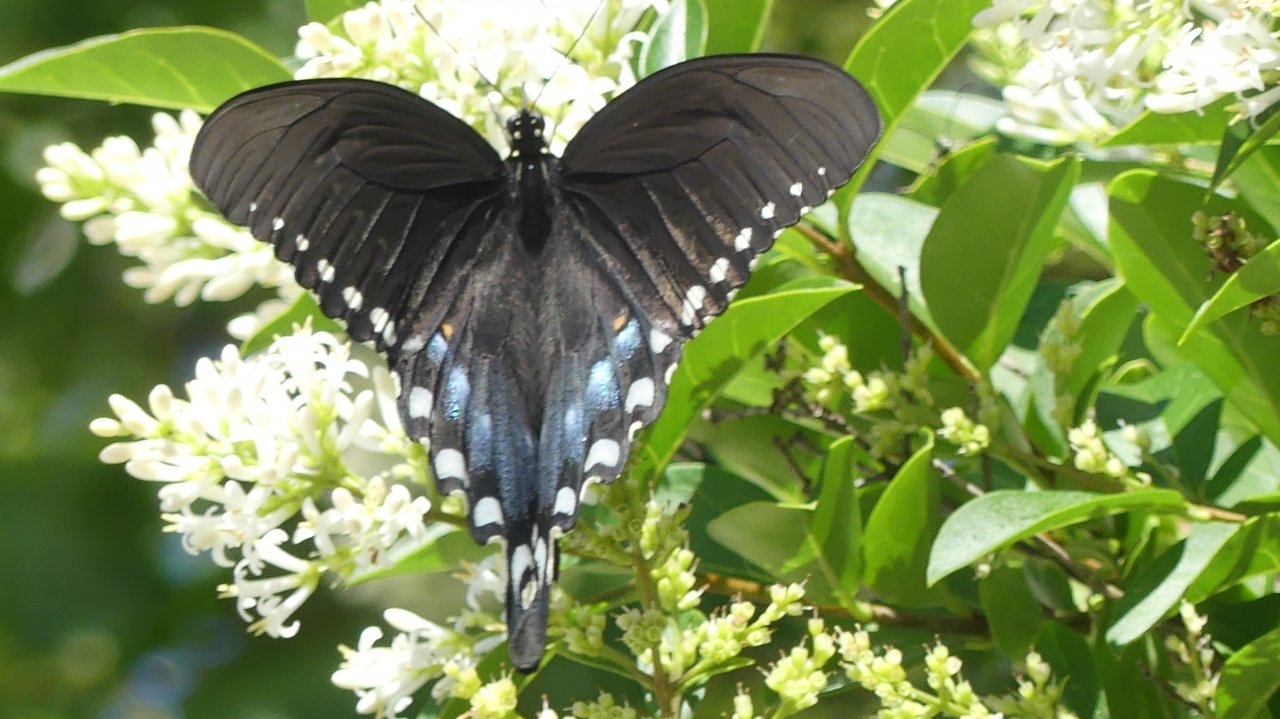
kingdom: Animalia
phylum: Arthropoda
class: Insecta
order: Lepidoptera
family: Papilionidae
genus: Pterourus
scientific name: Pterourus troilus
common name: Spicebush Swallowtail
